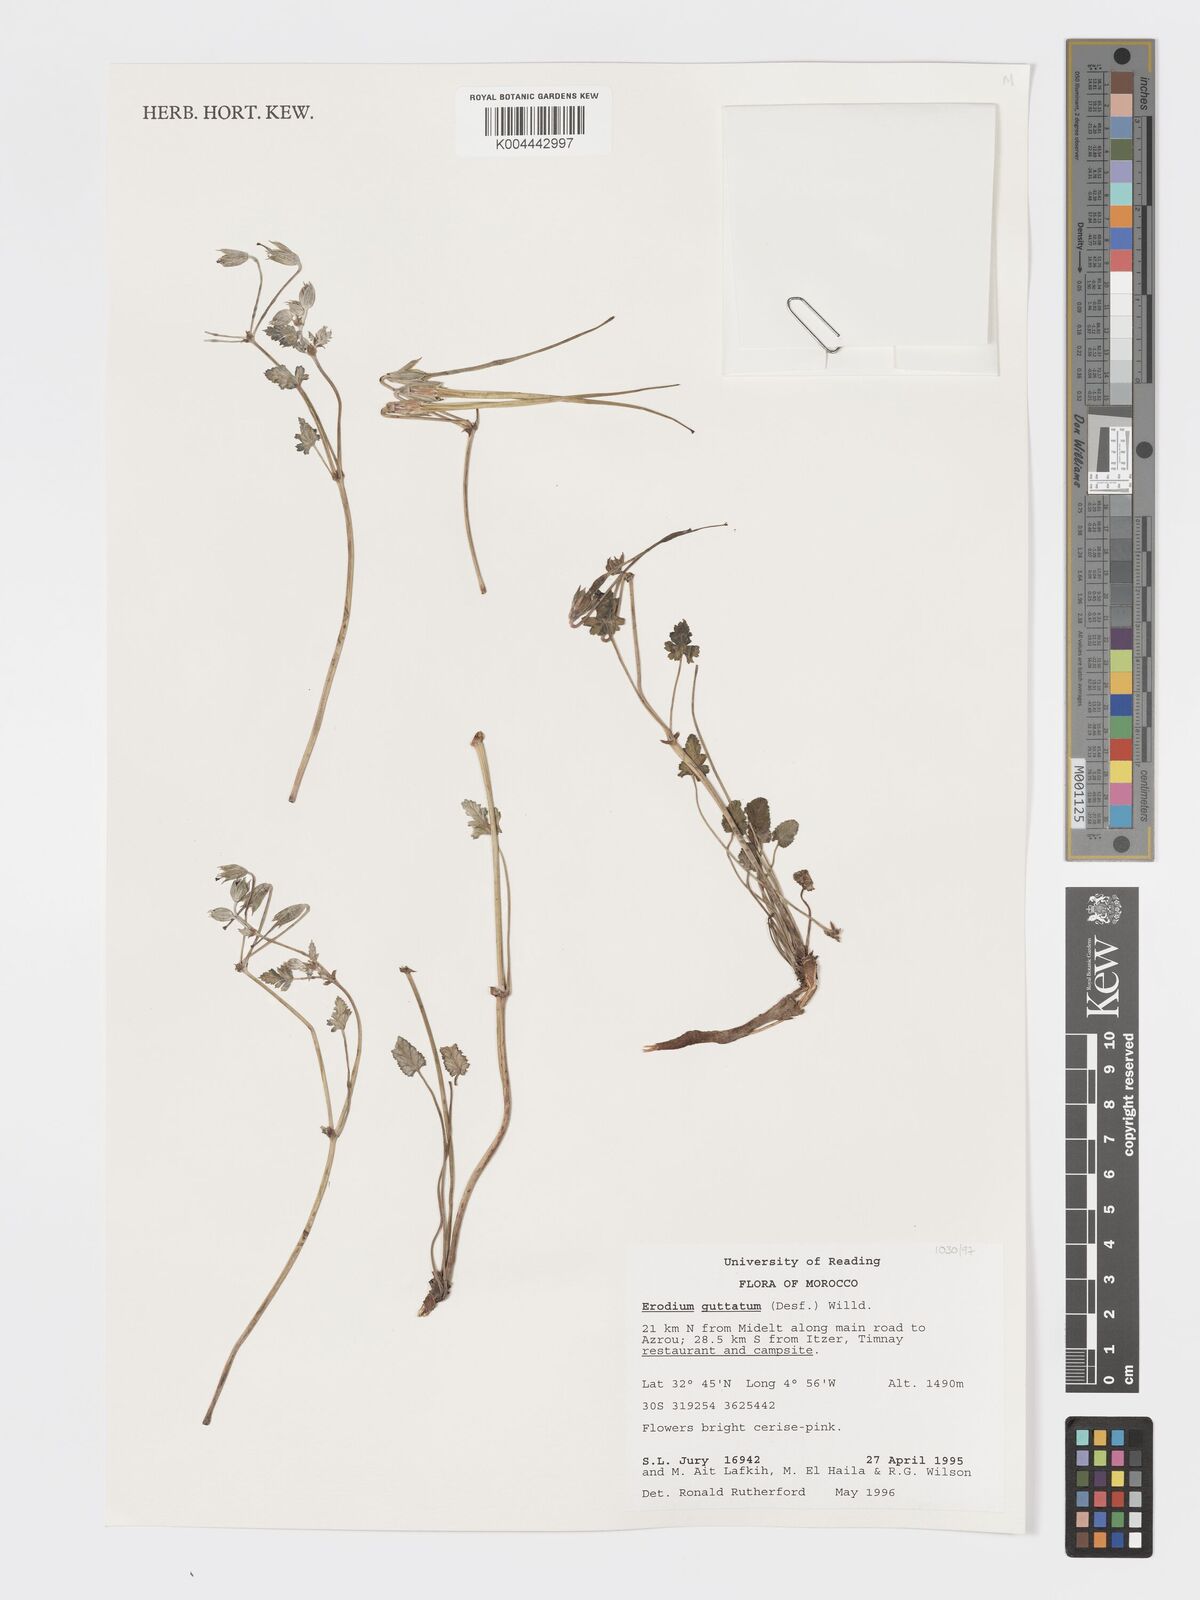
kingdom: Plantae
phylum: Tracheophyta
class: Magnoliopsida
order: Geraniales
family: Geraniaceae
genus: Erodium
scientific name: Erodium guttatum
